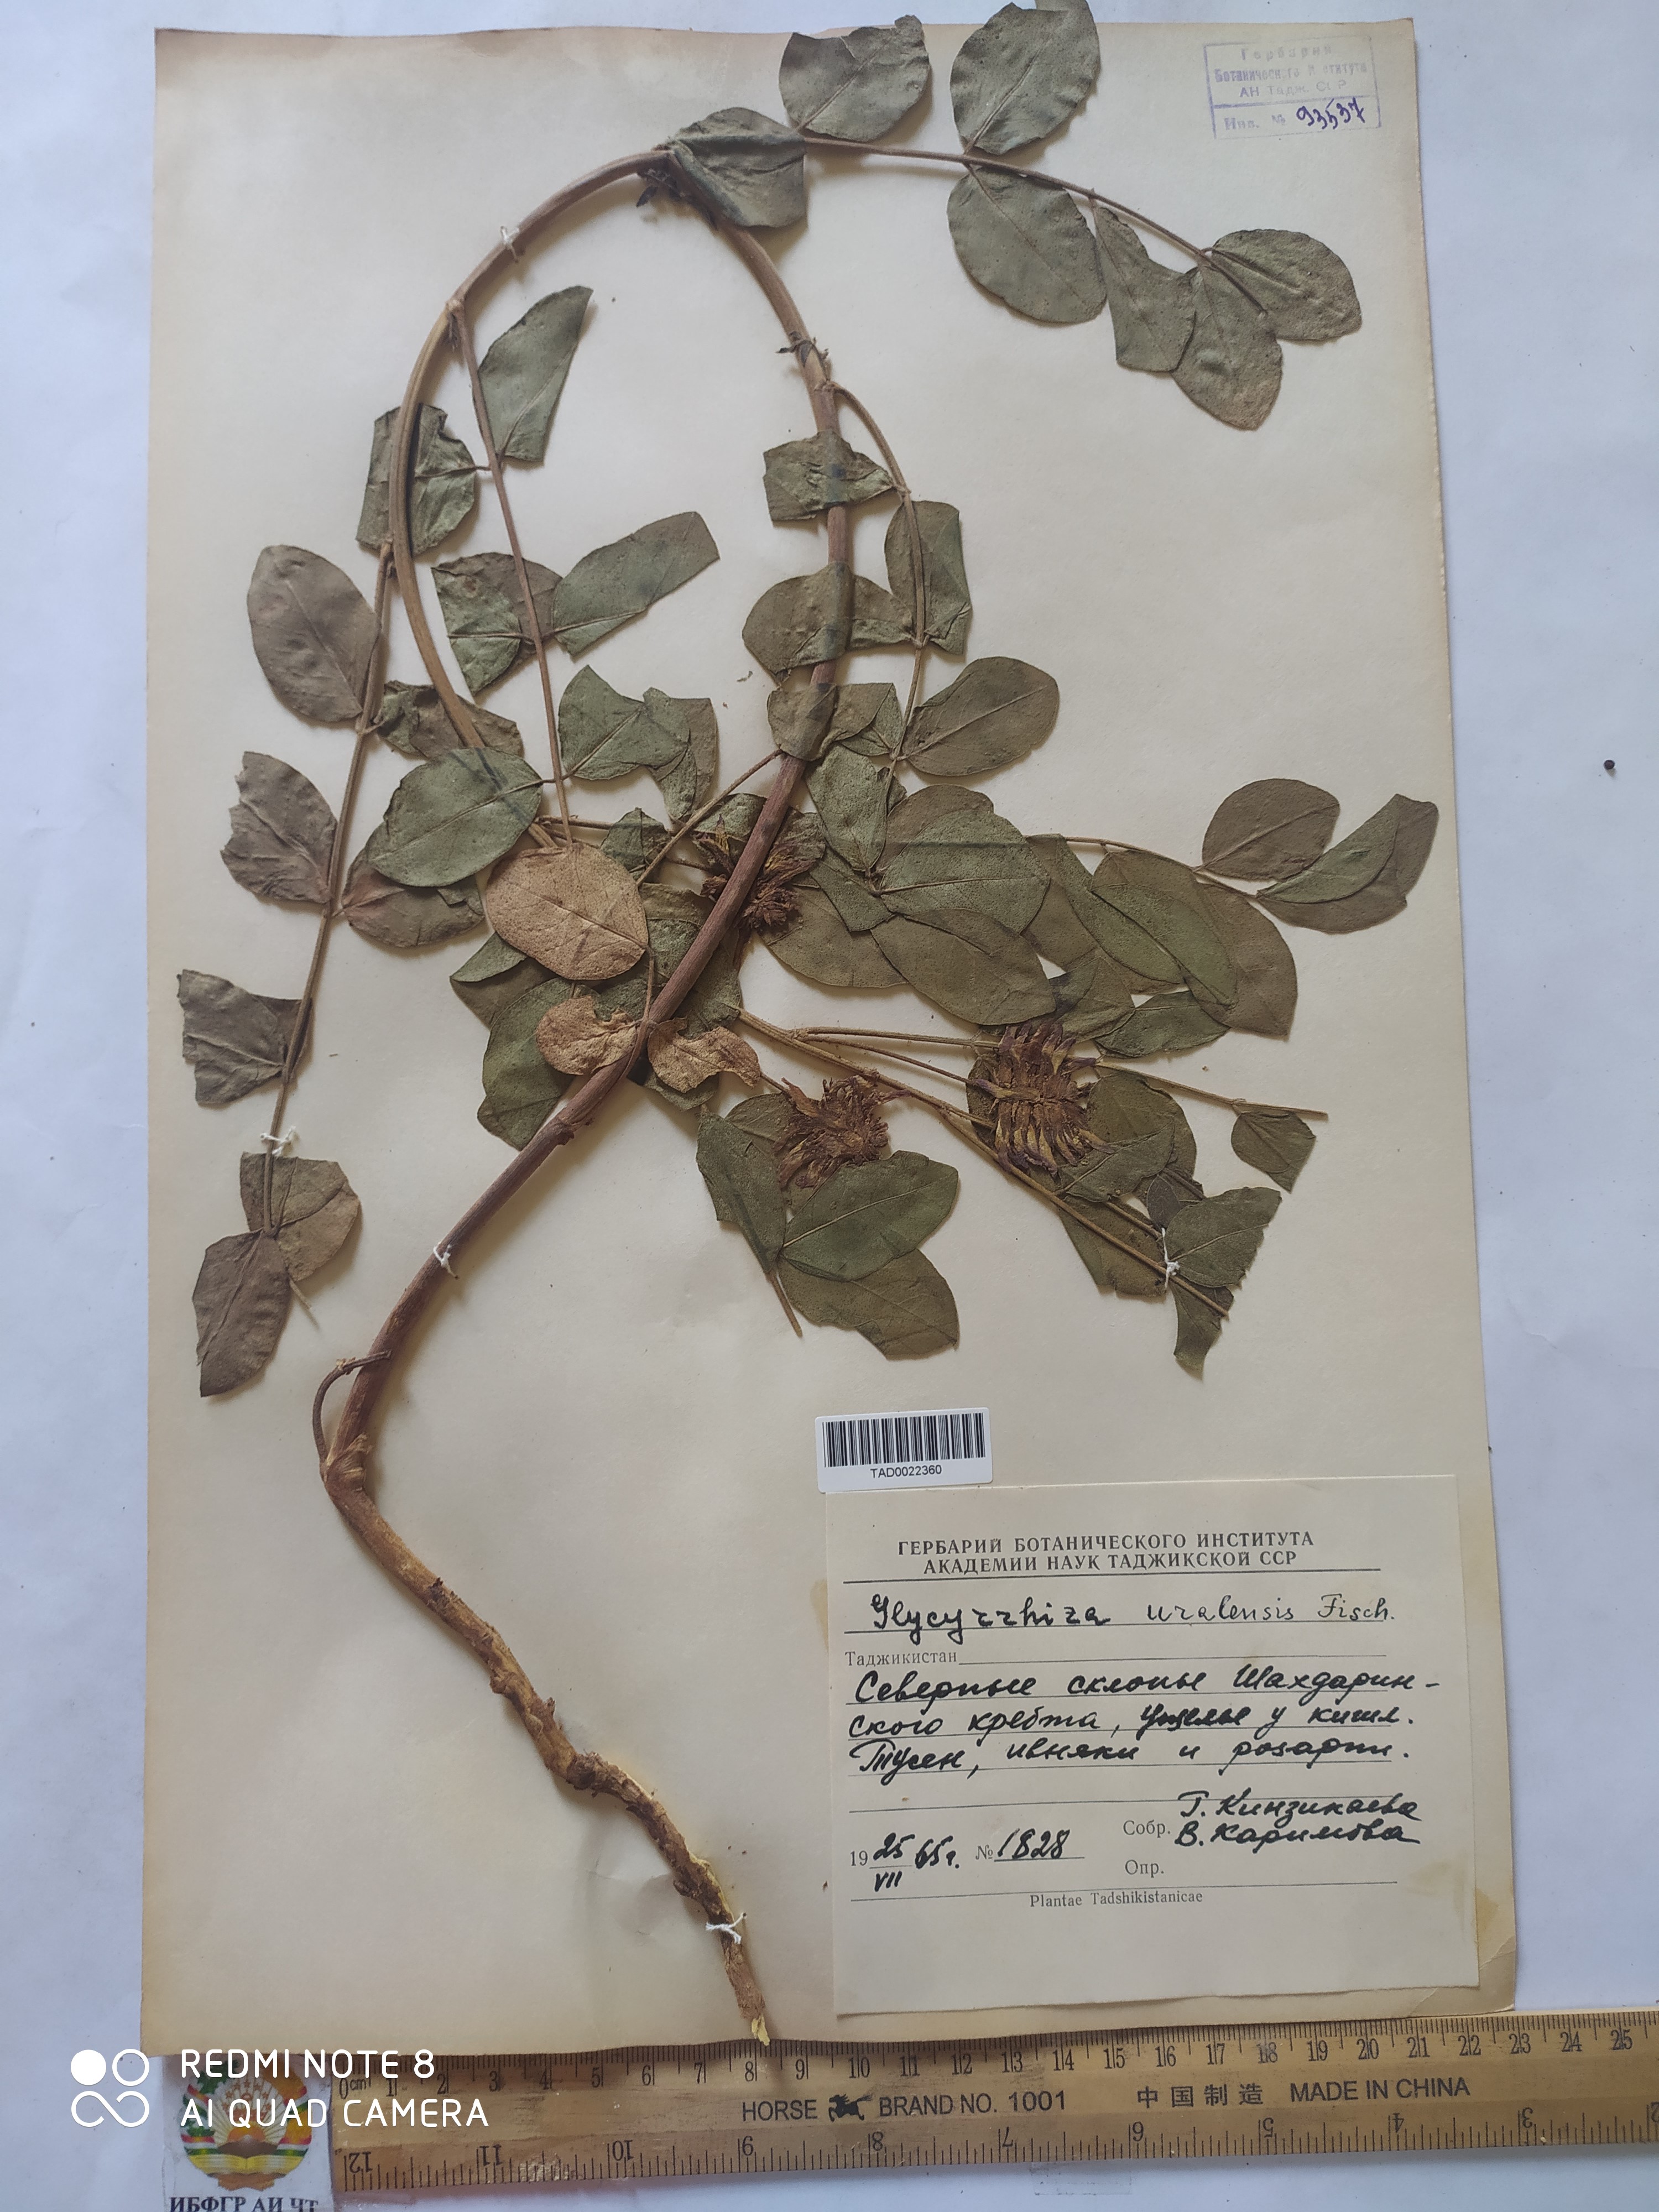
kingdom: Plantae
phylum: Tracheophyta
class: Magnoliopsida
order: Fabales
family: Fabaceae
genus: Glycyrrhiza
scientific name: Glycyrrhiza uralensis
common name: Chinese licorice
